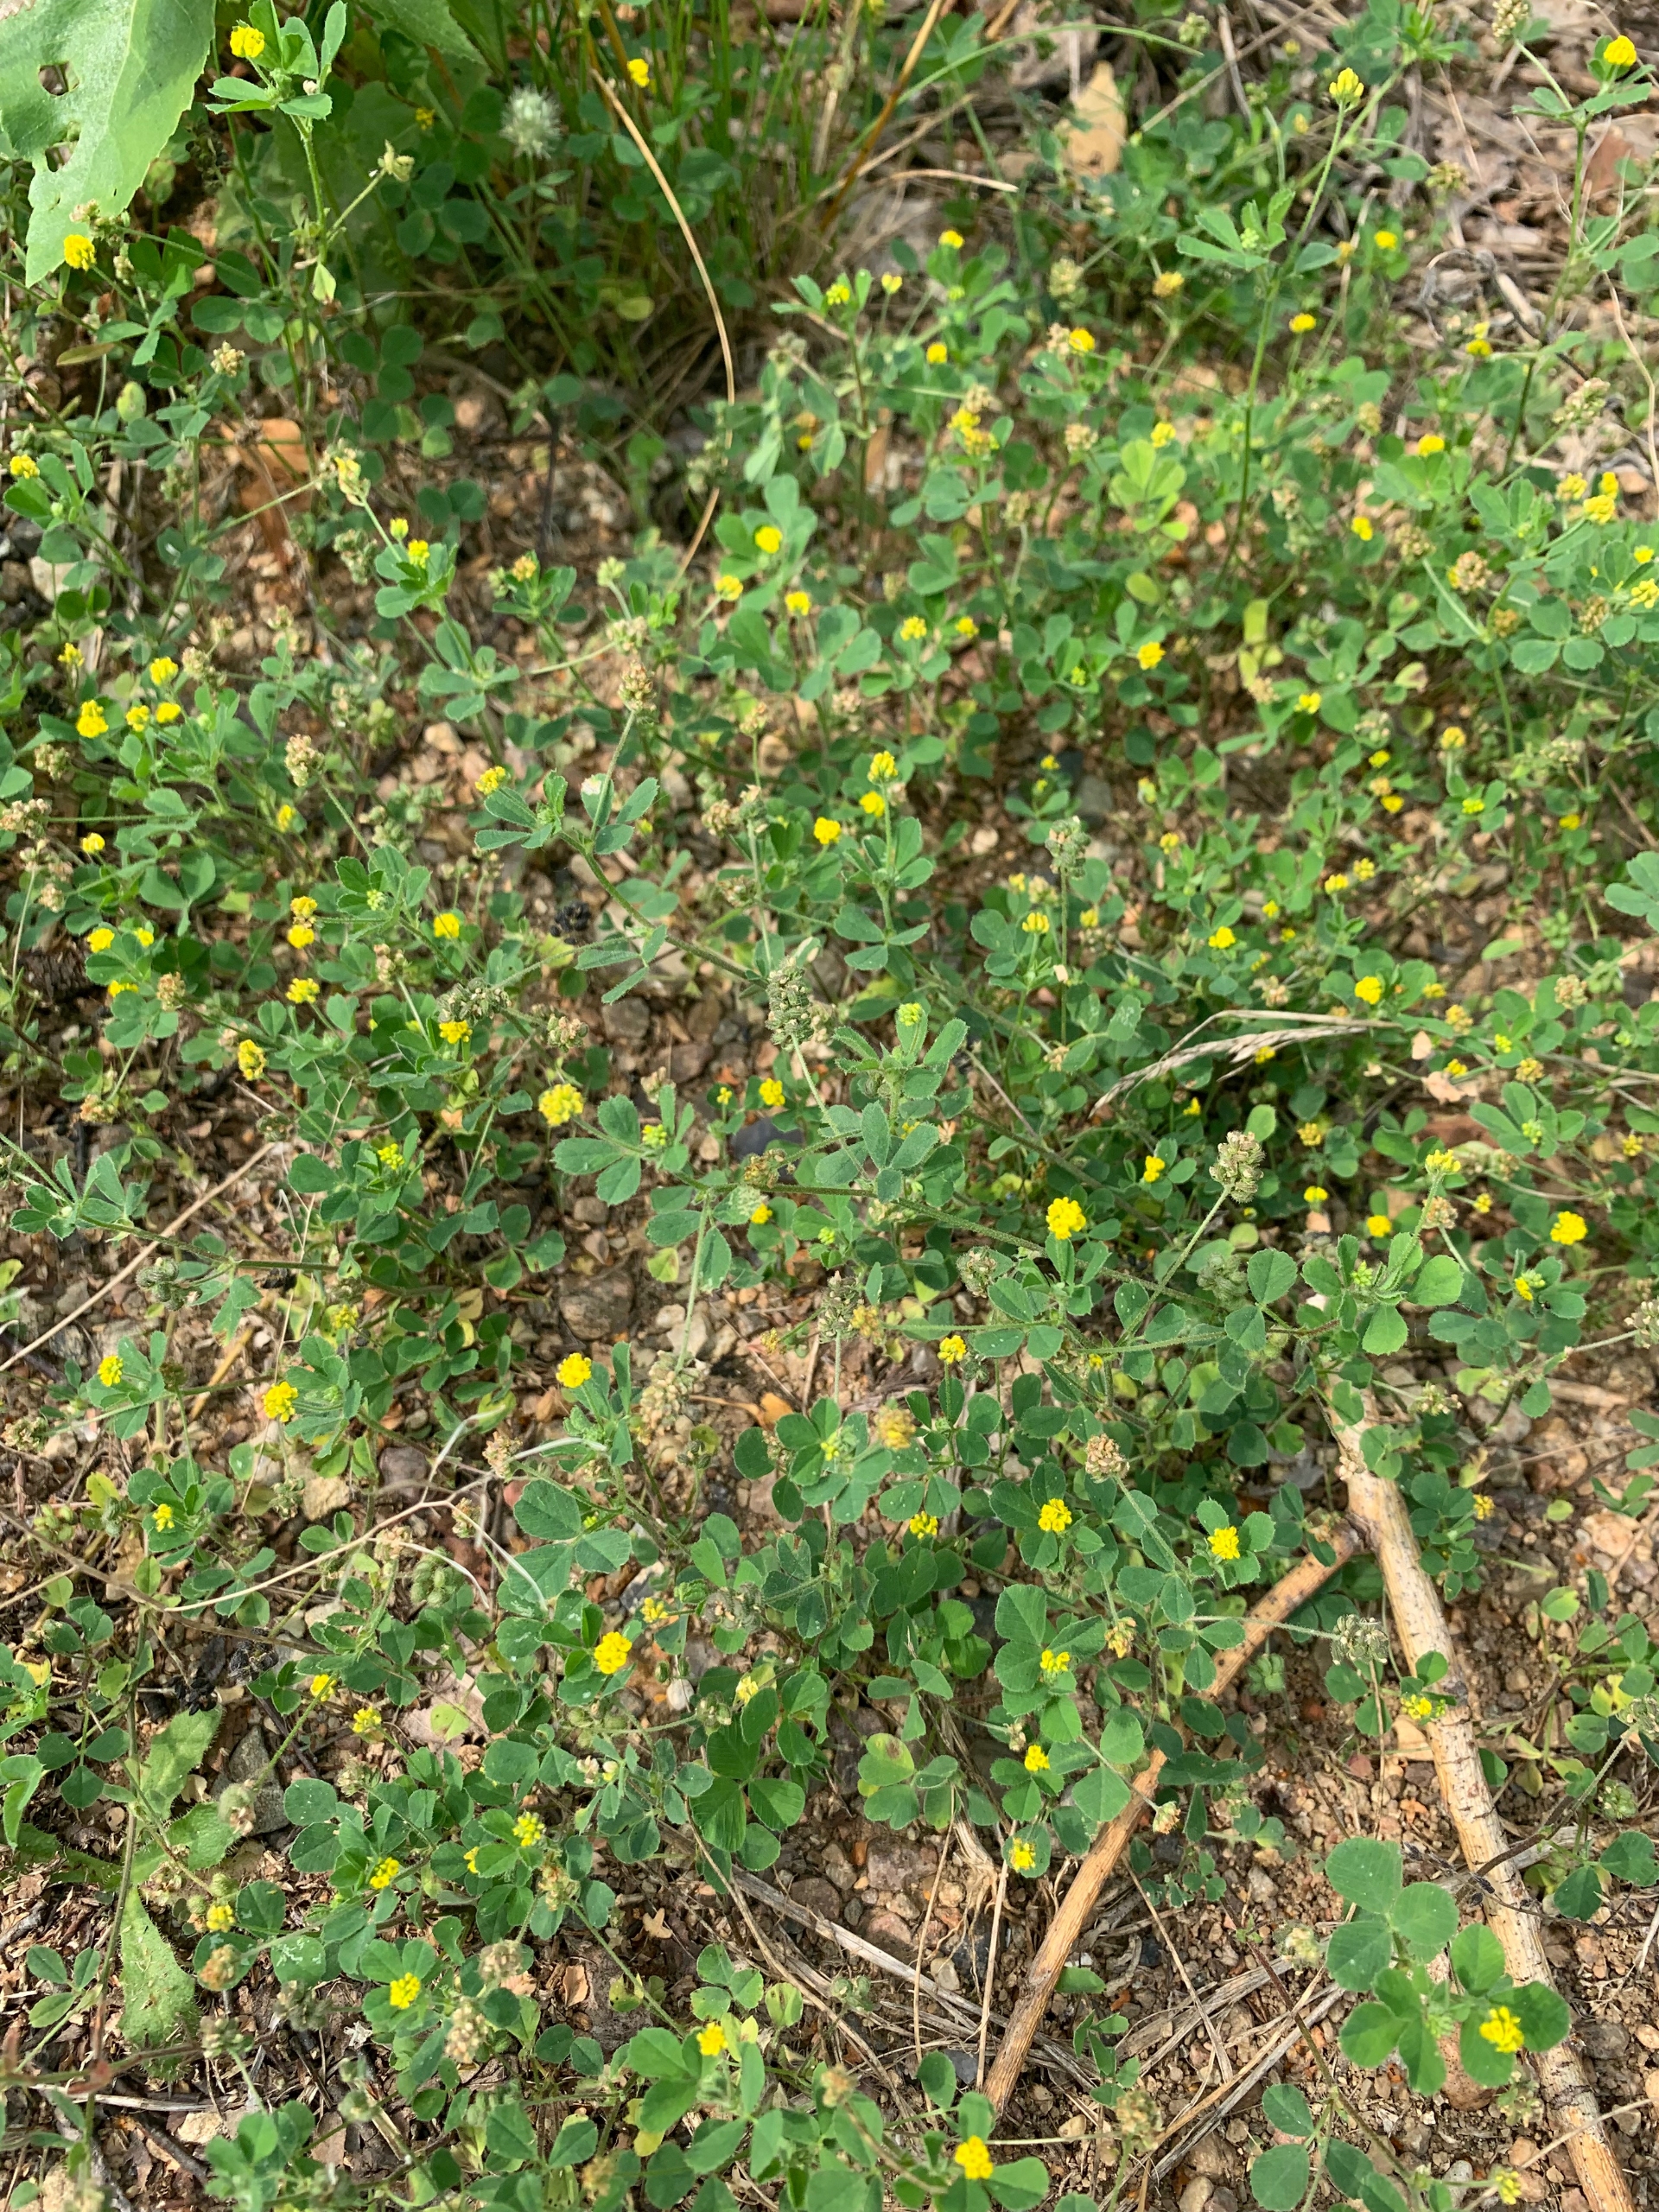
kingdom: Plantae
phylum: Tracheophyta
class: Magnoliopsida
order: Fabales
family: Fabaceae
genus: Medicago
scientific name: Medicago lupulina
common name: Humle-sneglebælg
